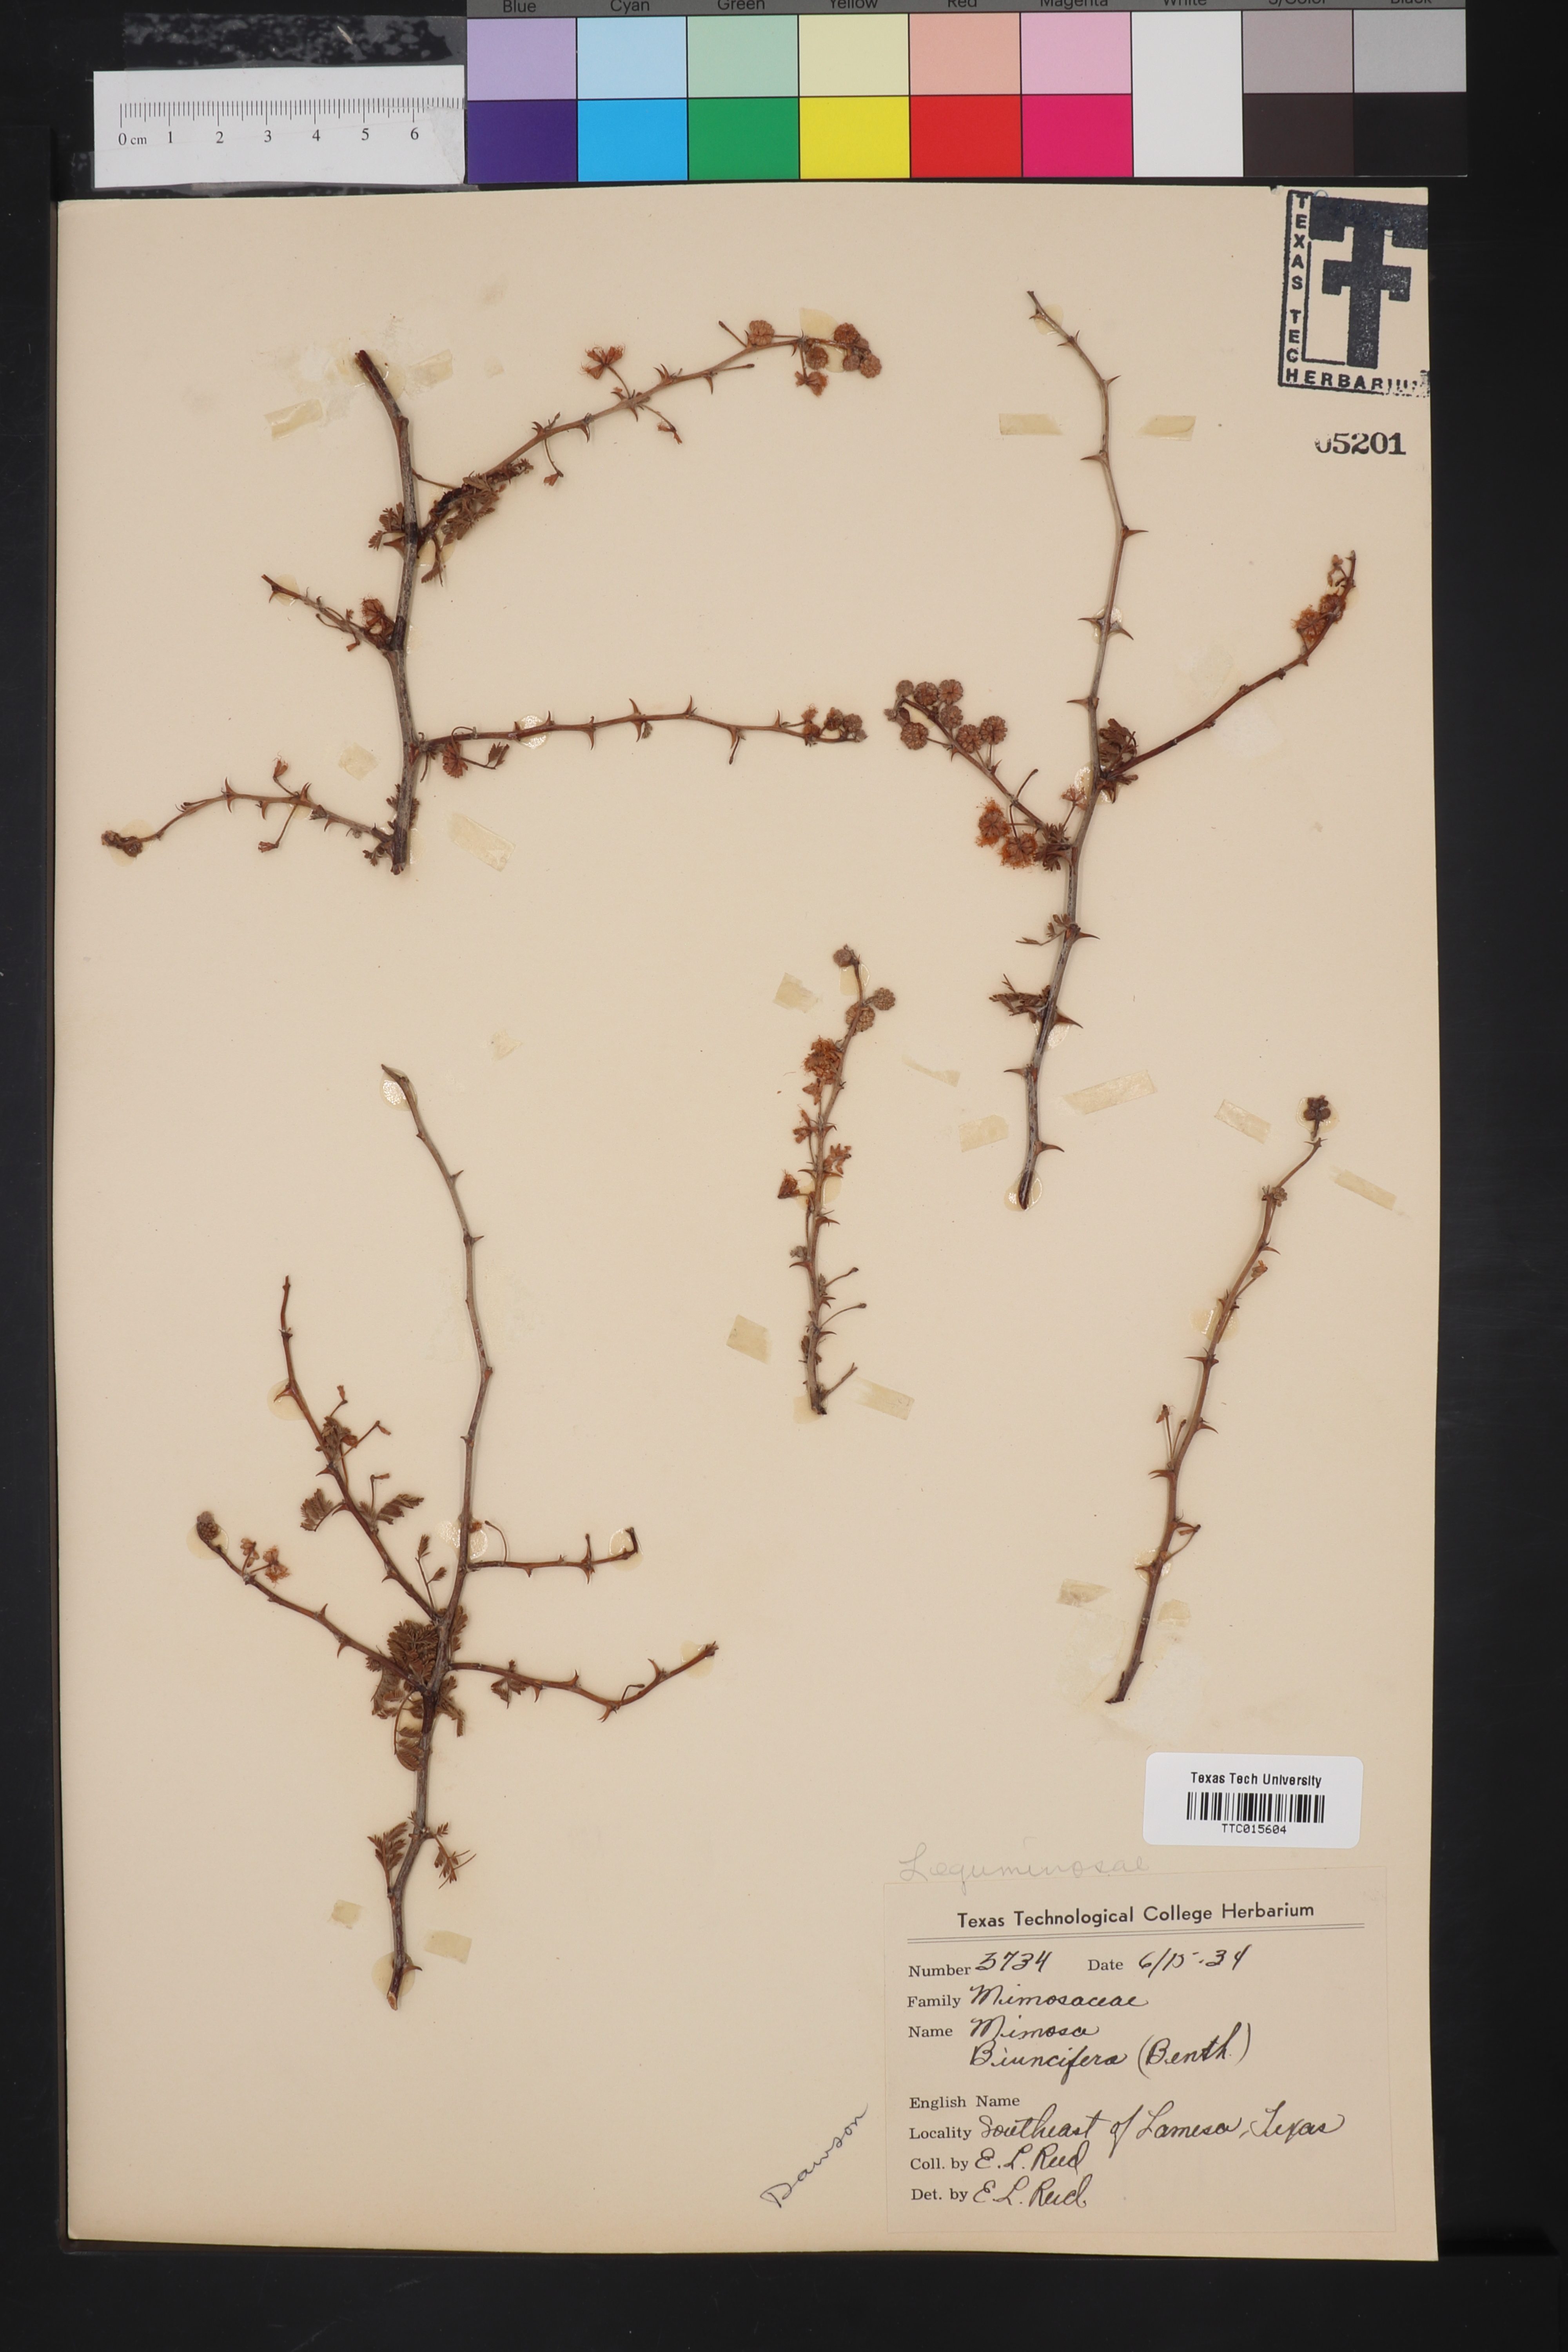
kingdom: Plantae
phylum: Tracheophyta
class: Magnoliopsida
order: Fabales
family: Fabaceae
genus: Mimosa
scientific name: Mimosa biuncifera
